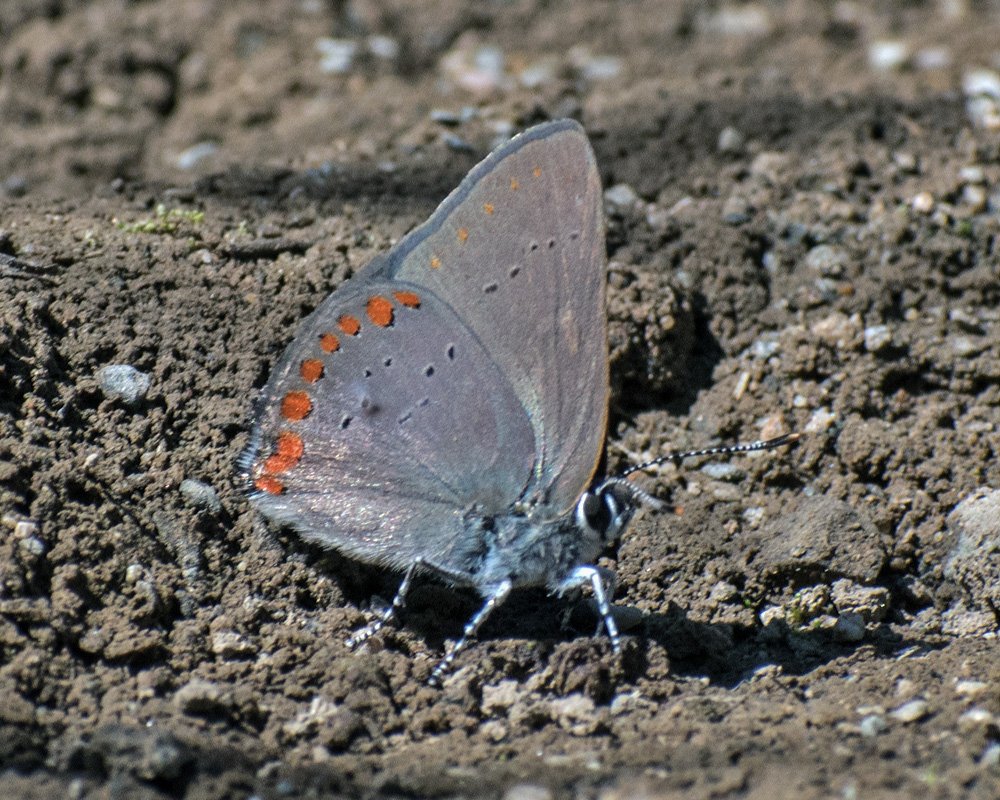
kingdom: Animalia
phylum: Arthropoda
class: Insecta
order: Lepidoptera
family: Lycaenidae
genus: Harkenclenus
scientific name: Harkenclenus titus
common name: Coral Hairstreak
